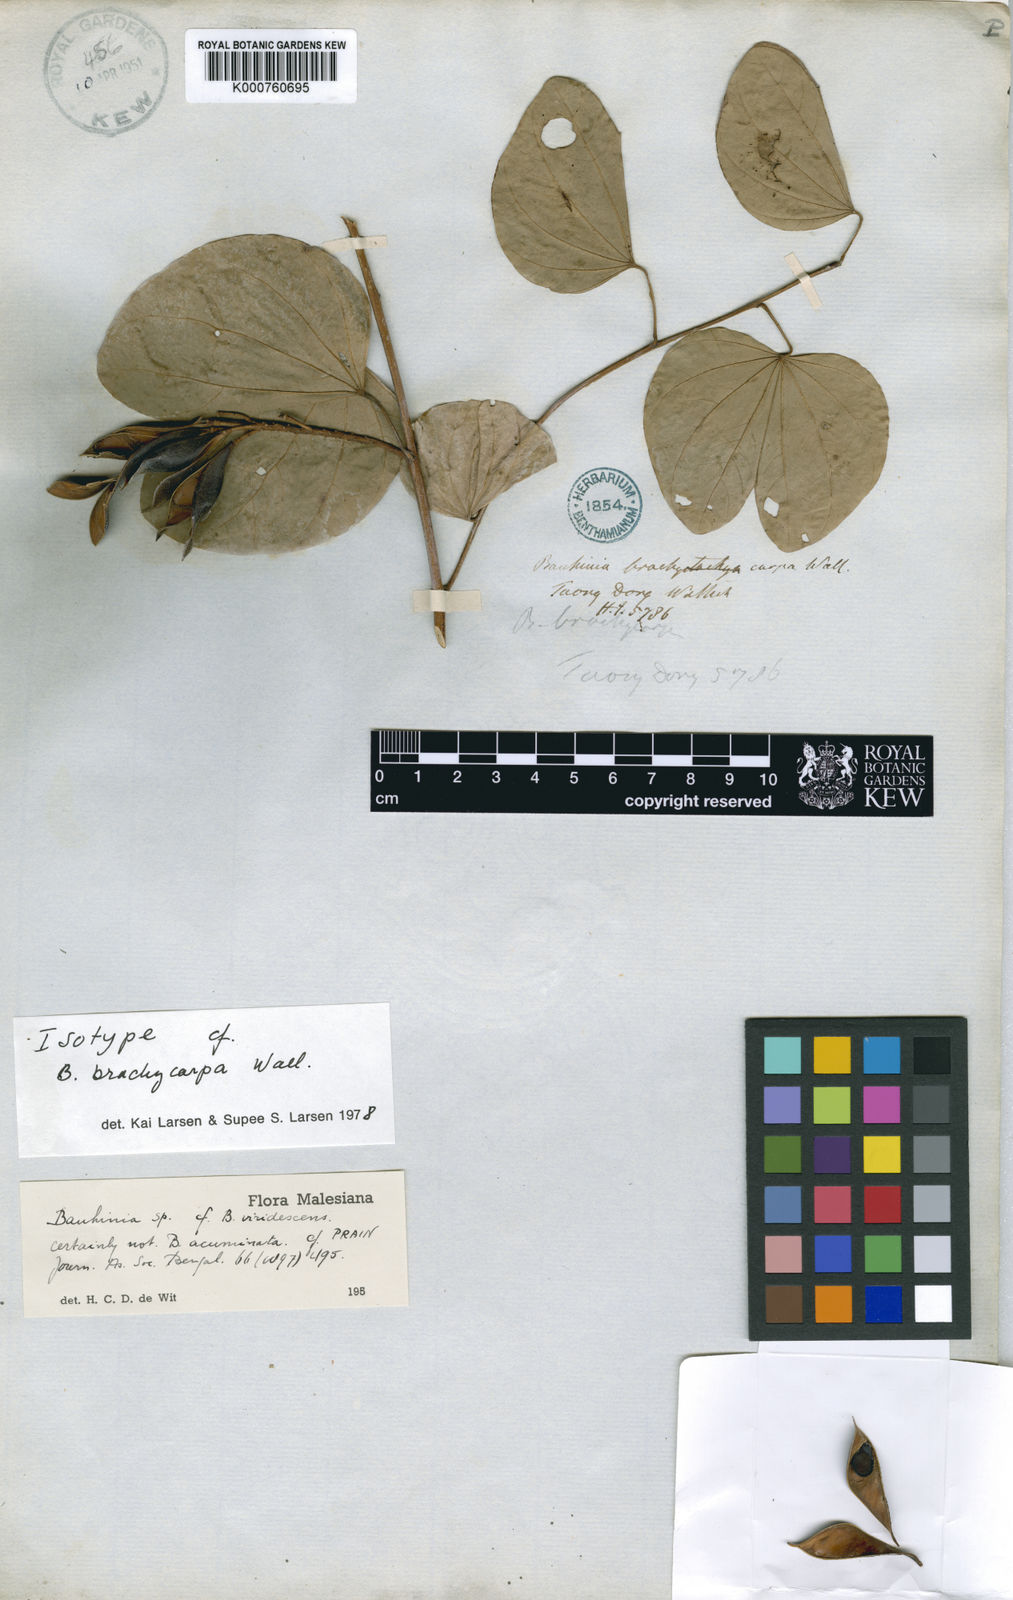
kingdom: Plantae
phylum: Tracheophyta
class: Magnoliopsida
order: Fabales
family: Fabaceae
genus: Bauhinia
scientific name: Bauhinia brachycarpa
